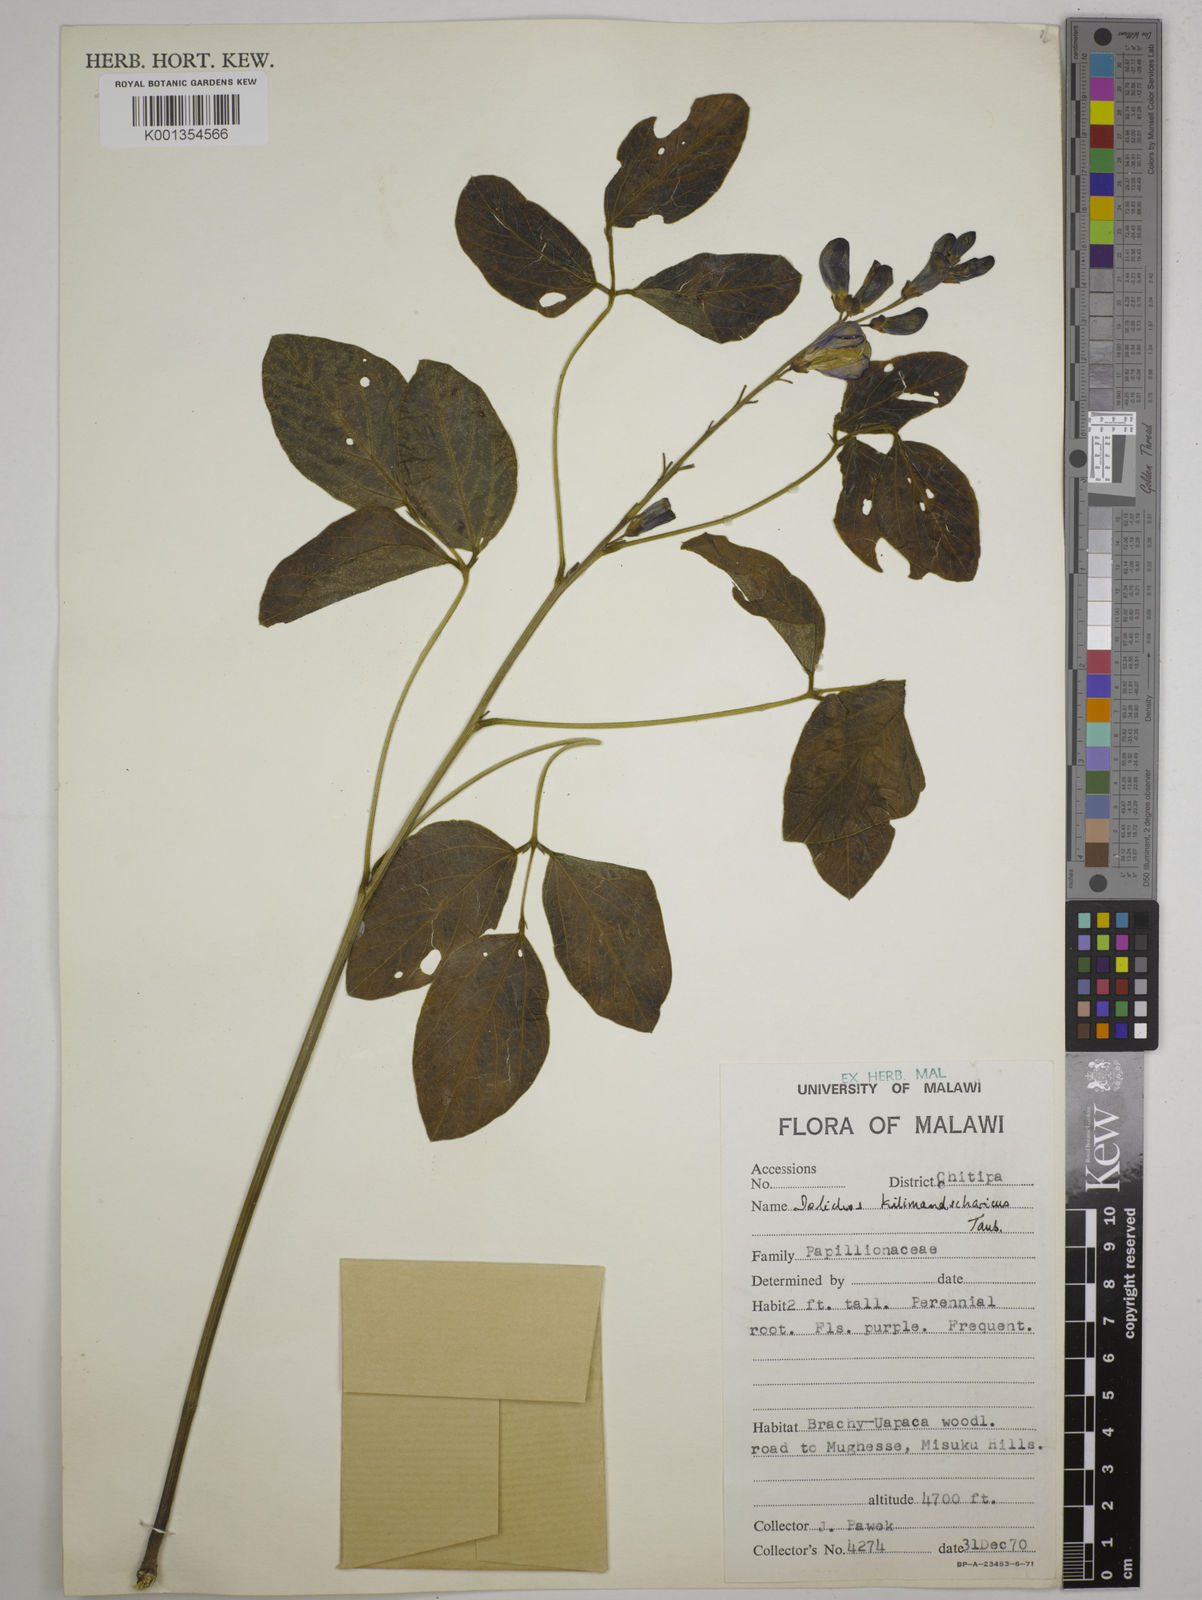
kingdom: Plantae
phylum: Tracheophyta
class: Magnoliopsida
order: Fabales
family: Fabaceae
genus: Dolichos
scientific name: Dolichos kilimandscharicus
